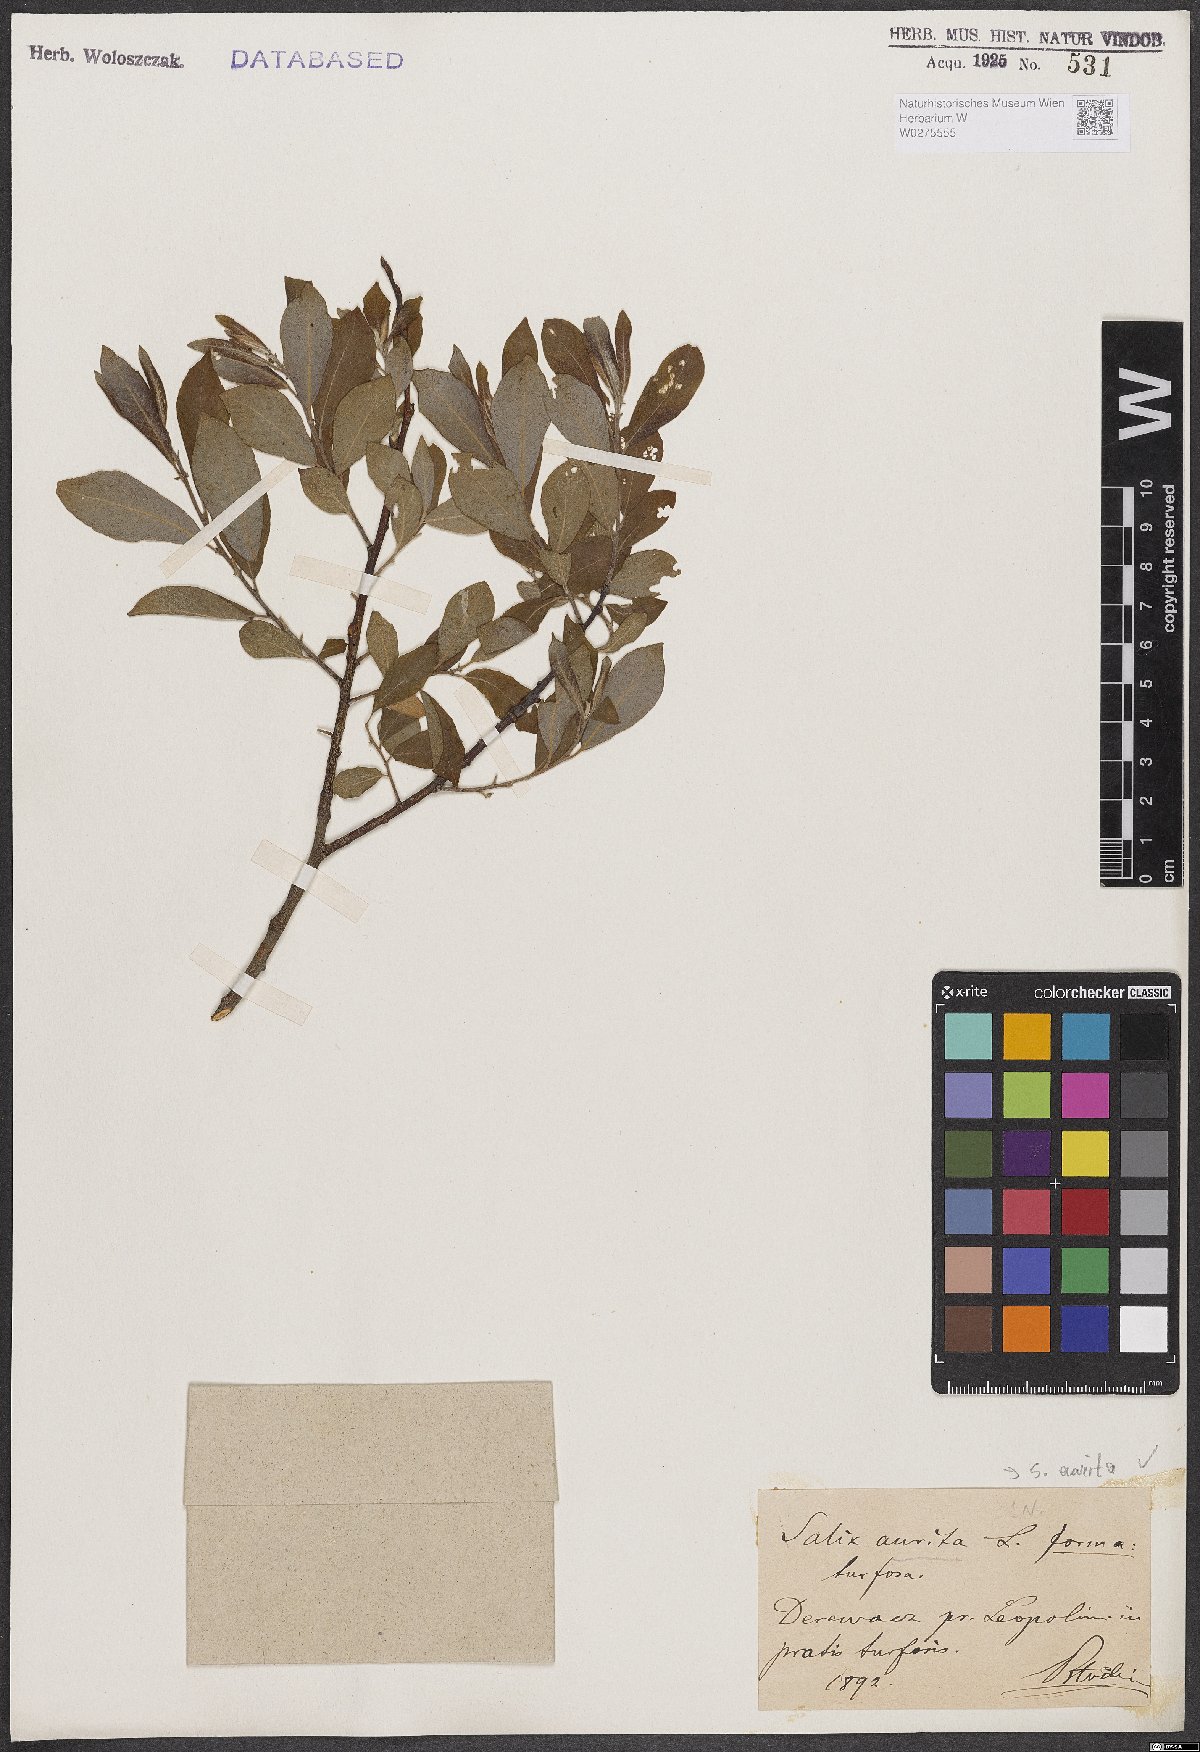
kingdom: Plantae
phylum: Tracheophyta
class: Magnoliopsida
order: Malpighiales
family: Salicaceae
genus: Salix
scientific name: Salix aurita
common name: Eared willow
